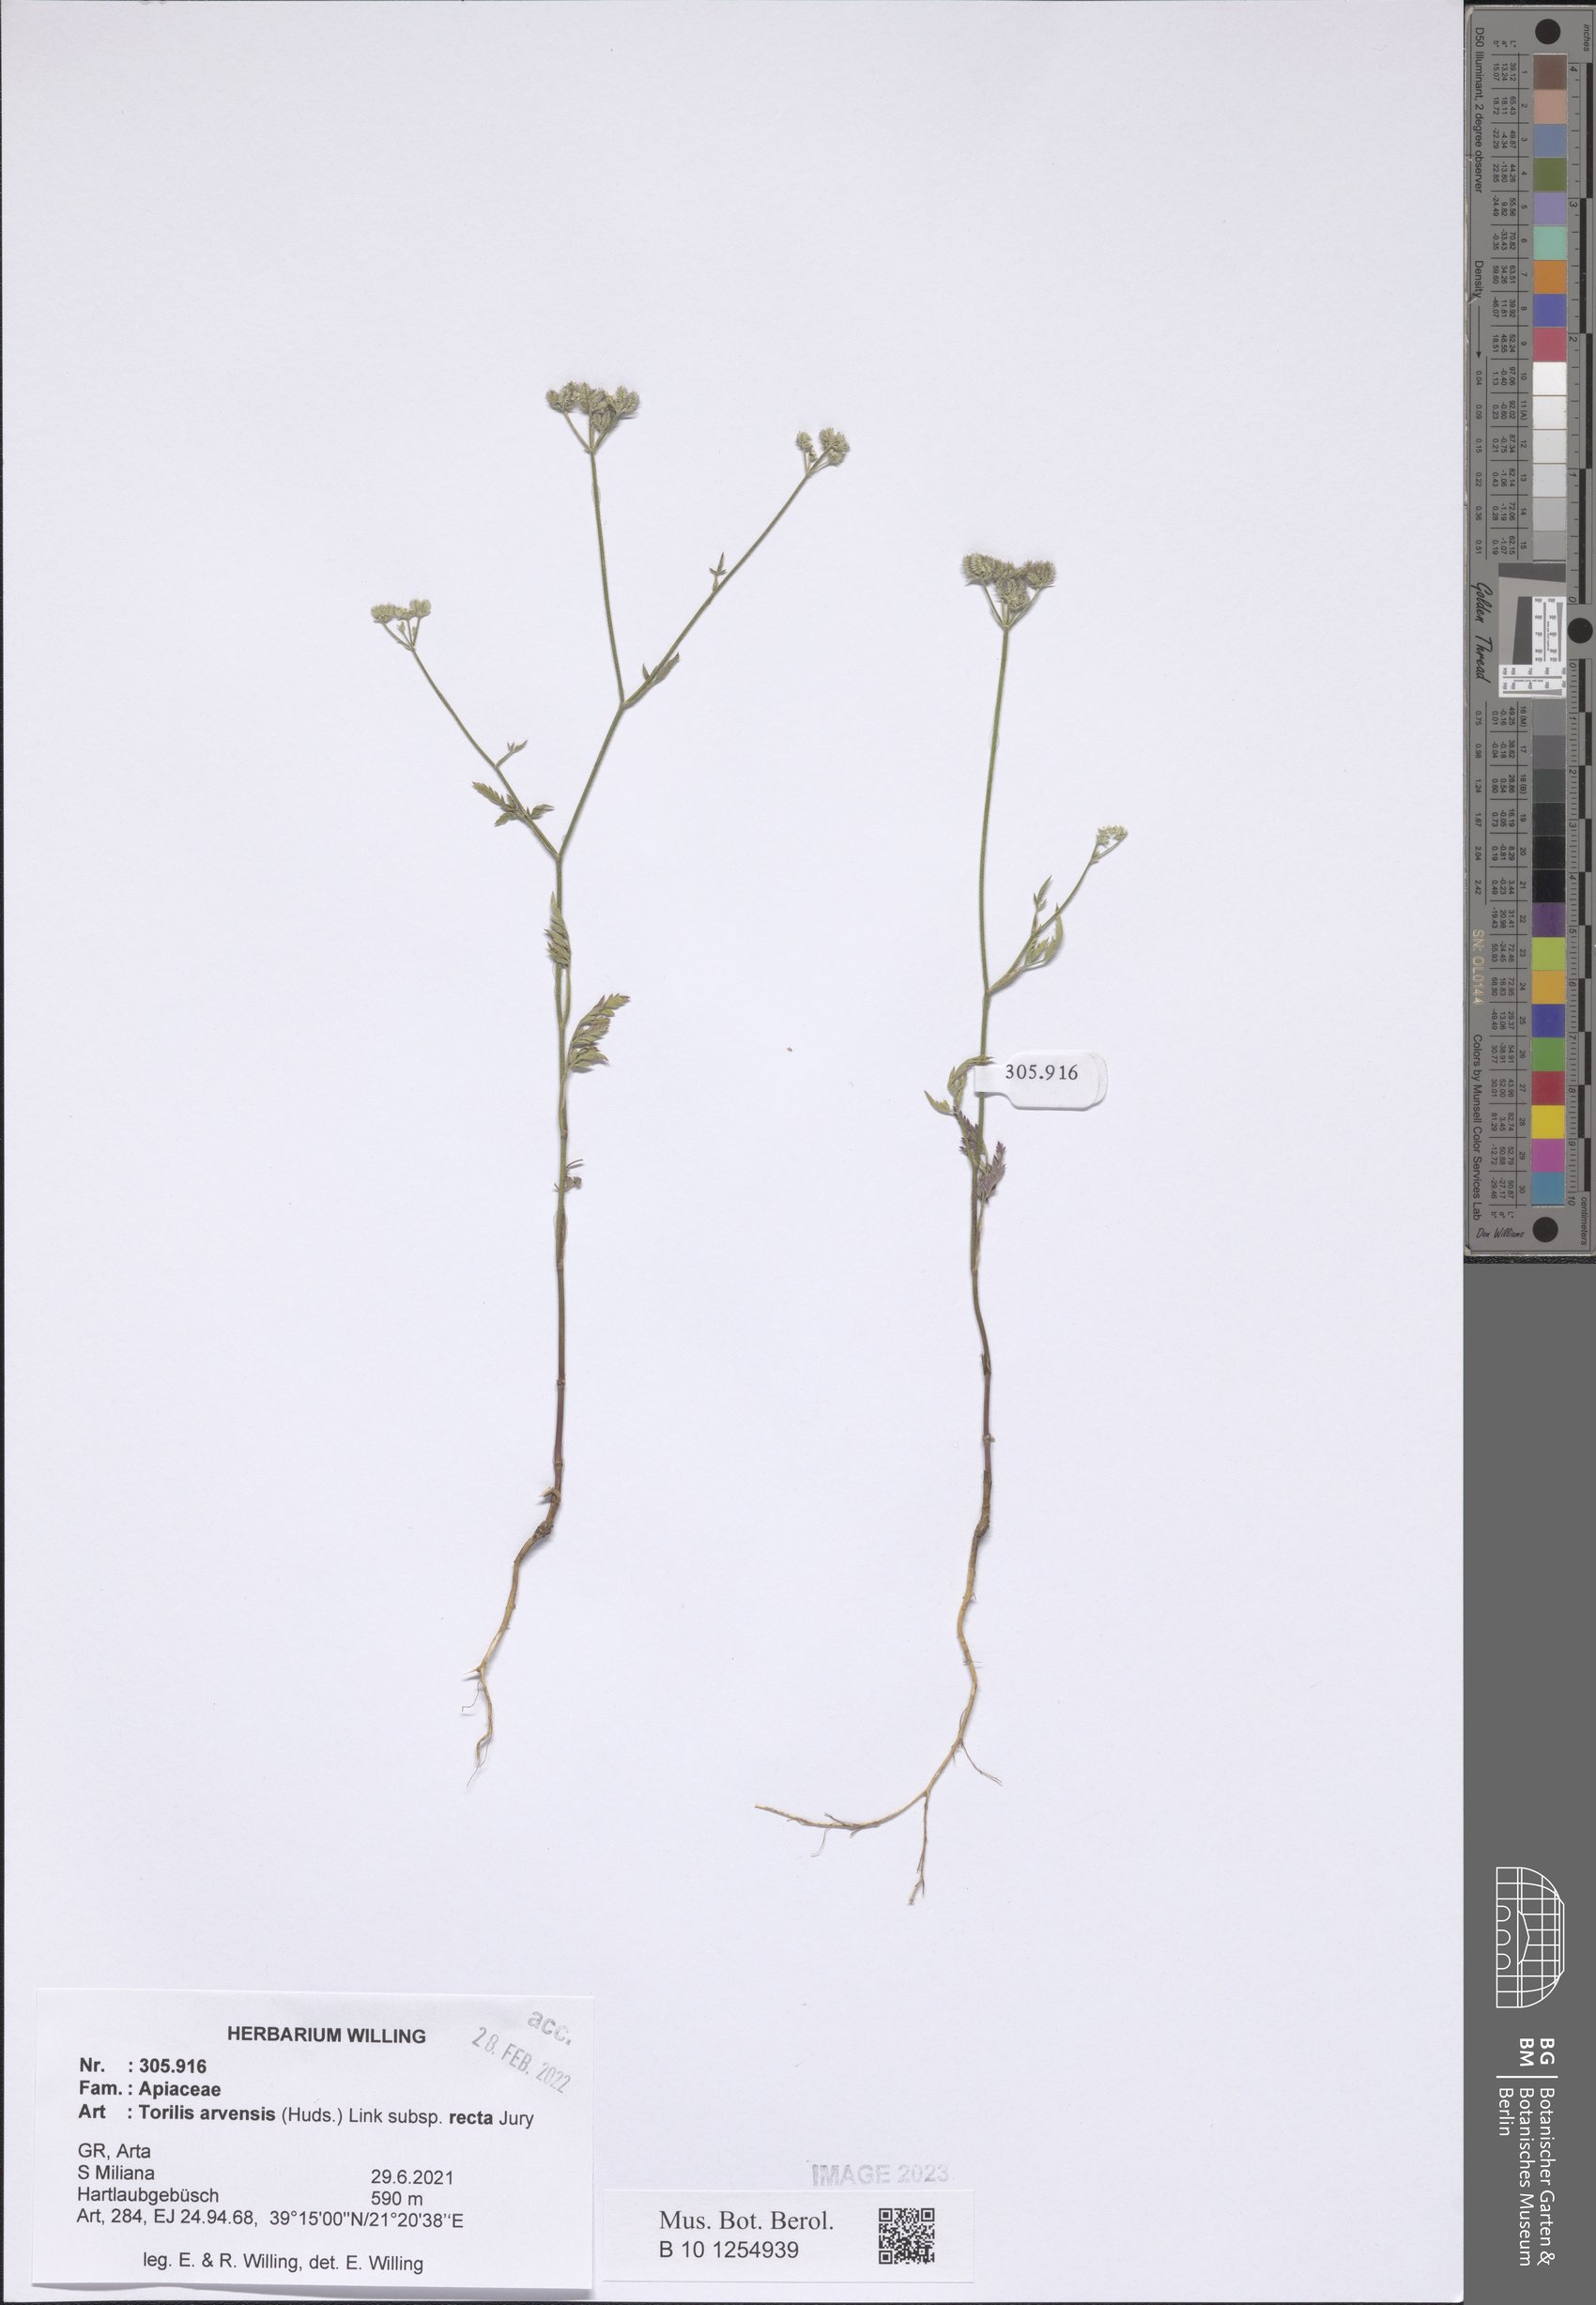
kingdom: Plantae
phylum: Tracheophyta
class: Magnoliopsida
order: Apiales
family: Apiaceae
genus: Torilis
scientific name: Torilis arvensis
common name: Spreading hedge-parsley
